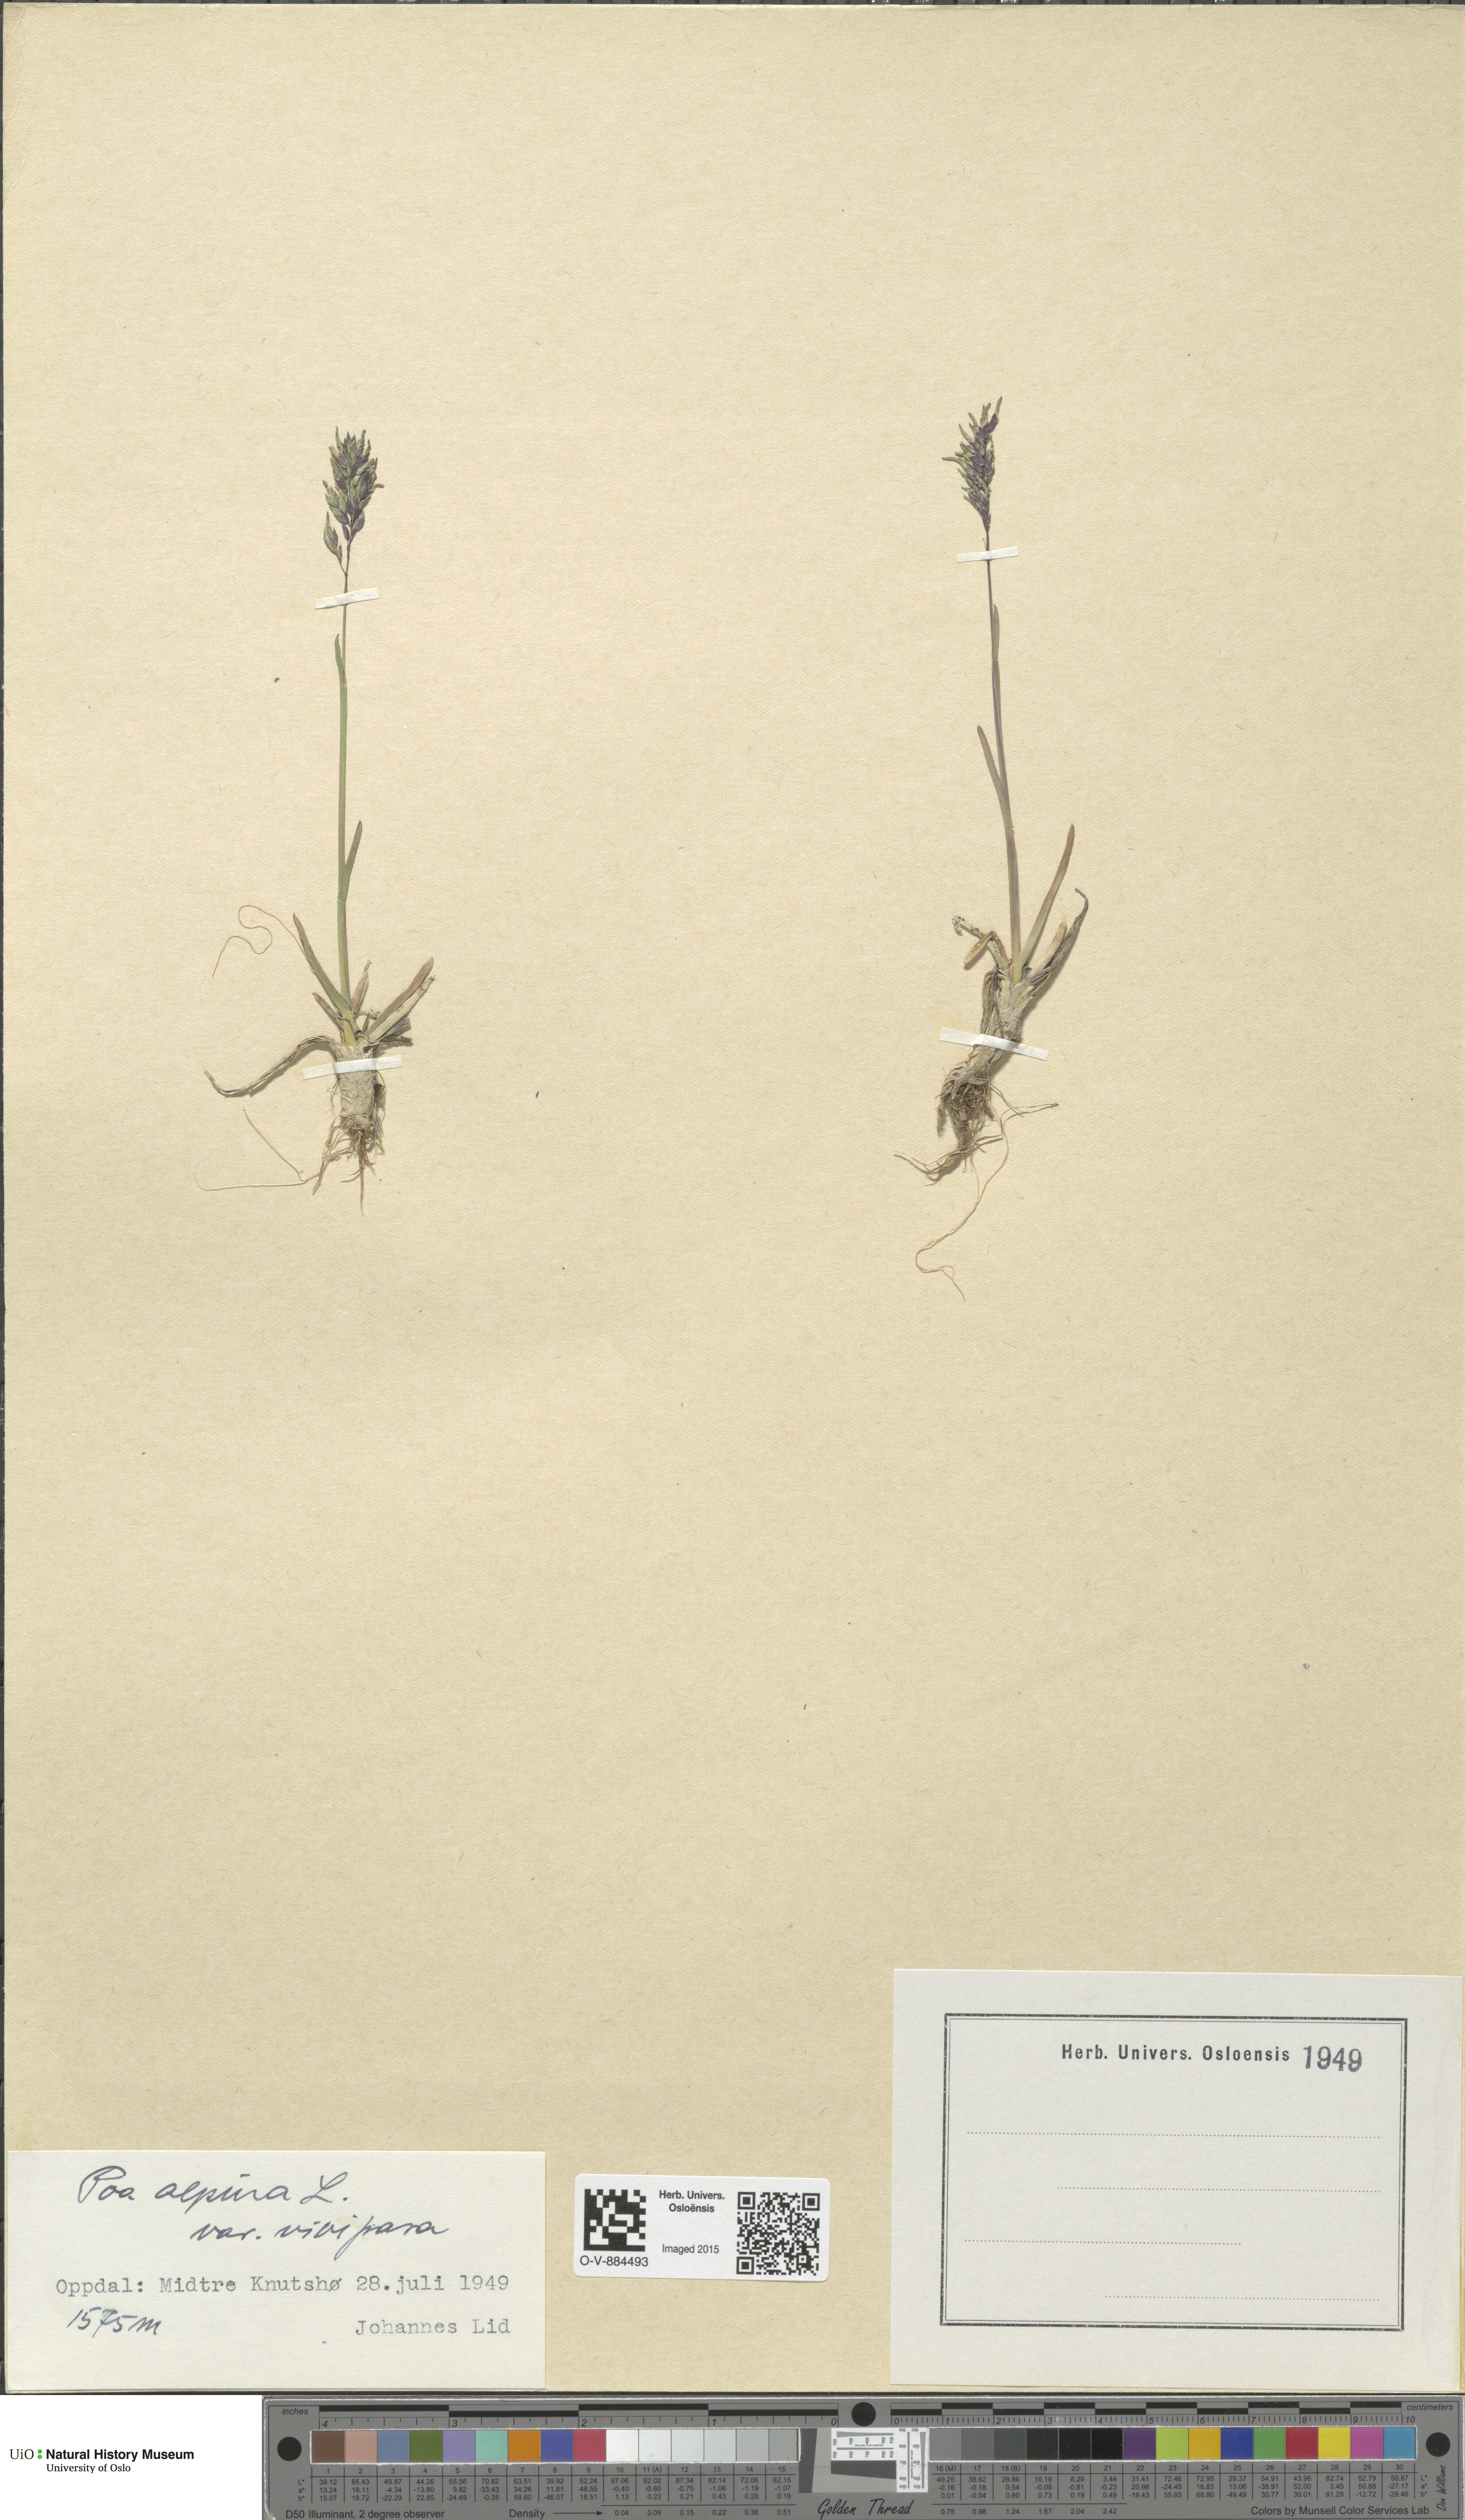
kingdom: Plantae
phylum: Tracheophyta
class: Liliopsida
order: Poales
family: Poaceae
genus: Poa
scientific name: Poa alpina
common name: Alpine bluegrass
